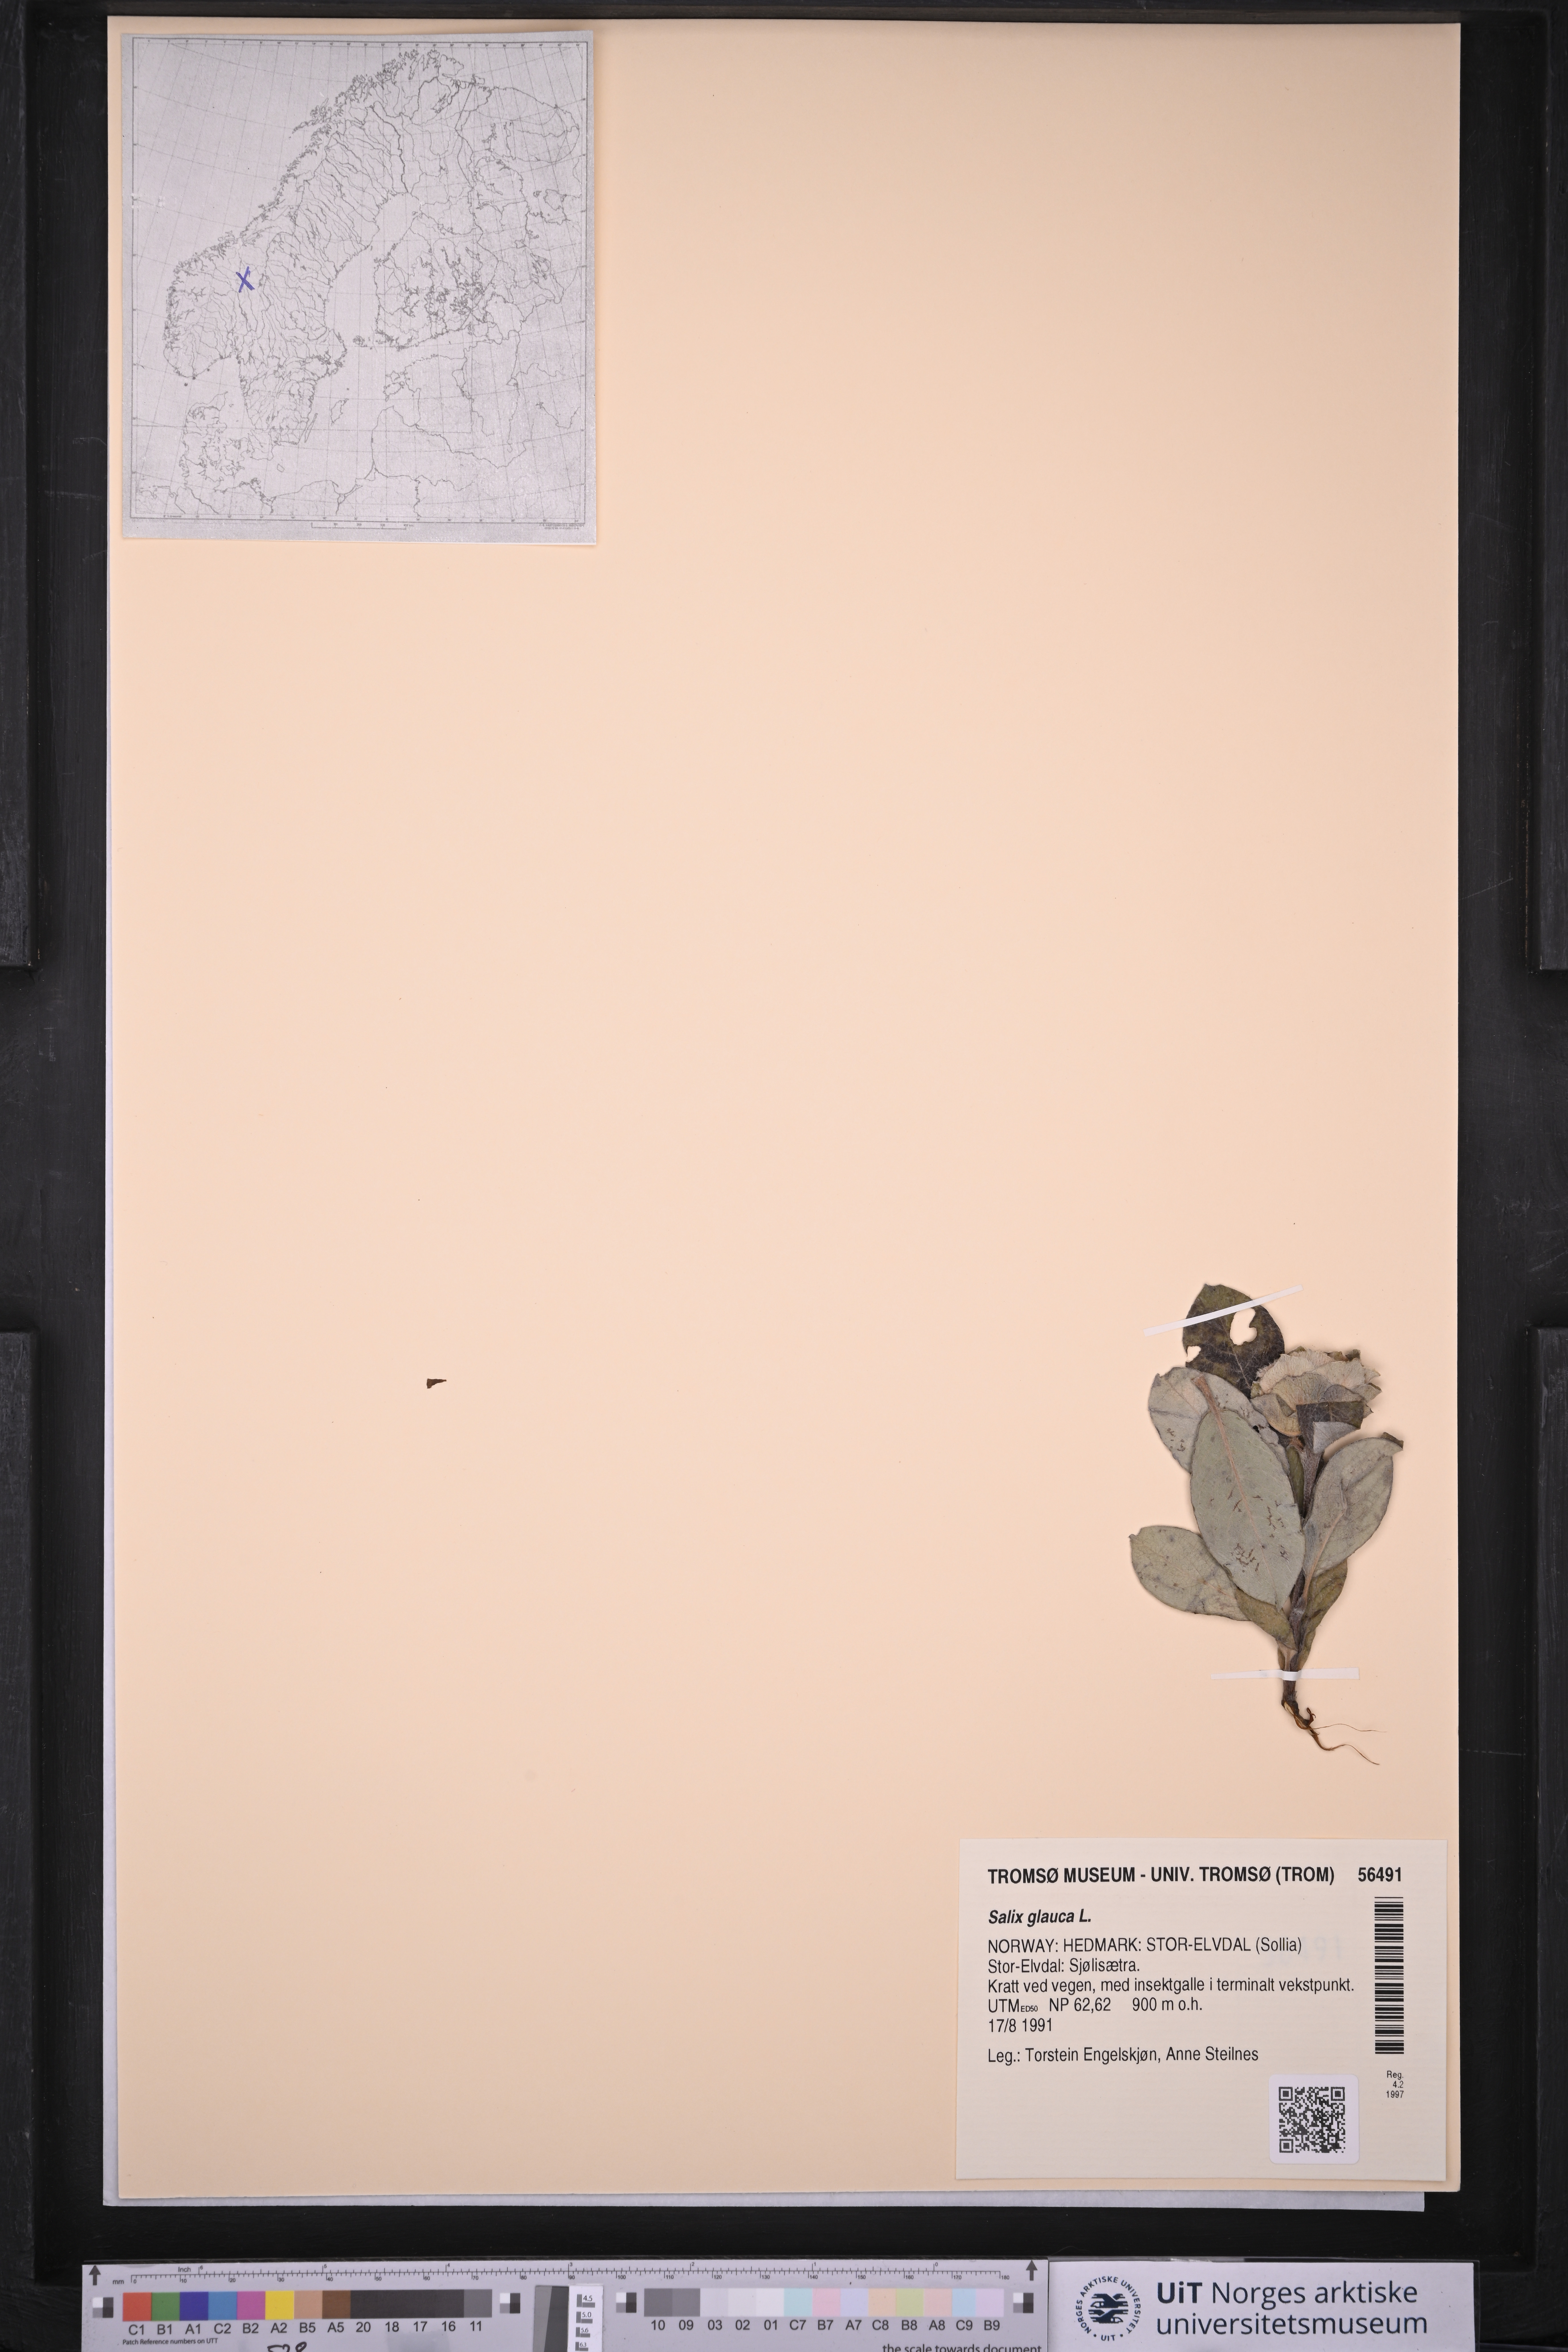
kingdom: Plantae
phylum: Tracheophyta
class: Magnoliopsida
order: Malpighiales
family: Salicaceae
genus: Salix
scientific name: Salix glauca
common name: Glaucous willow
